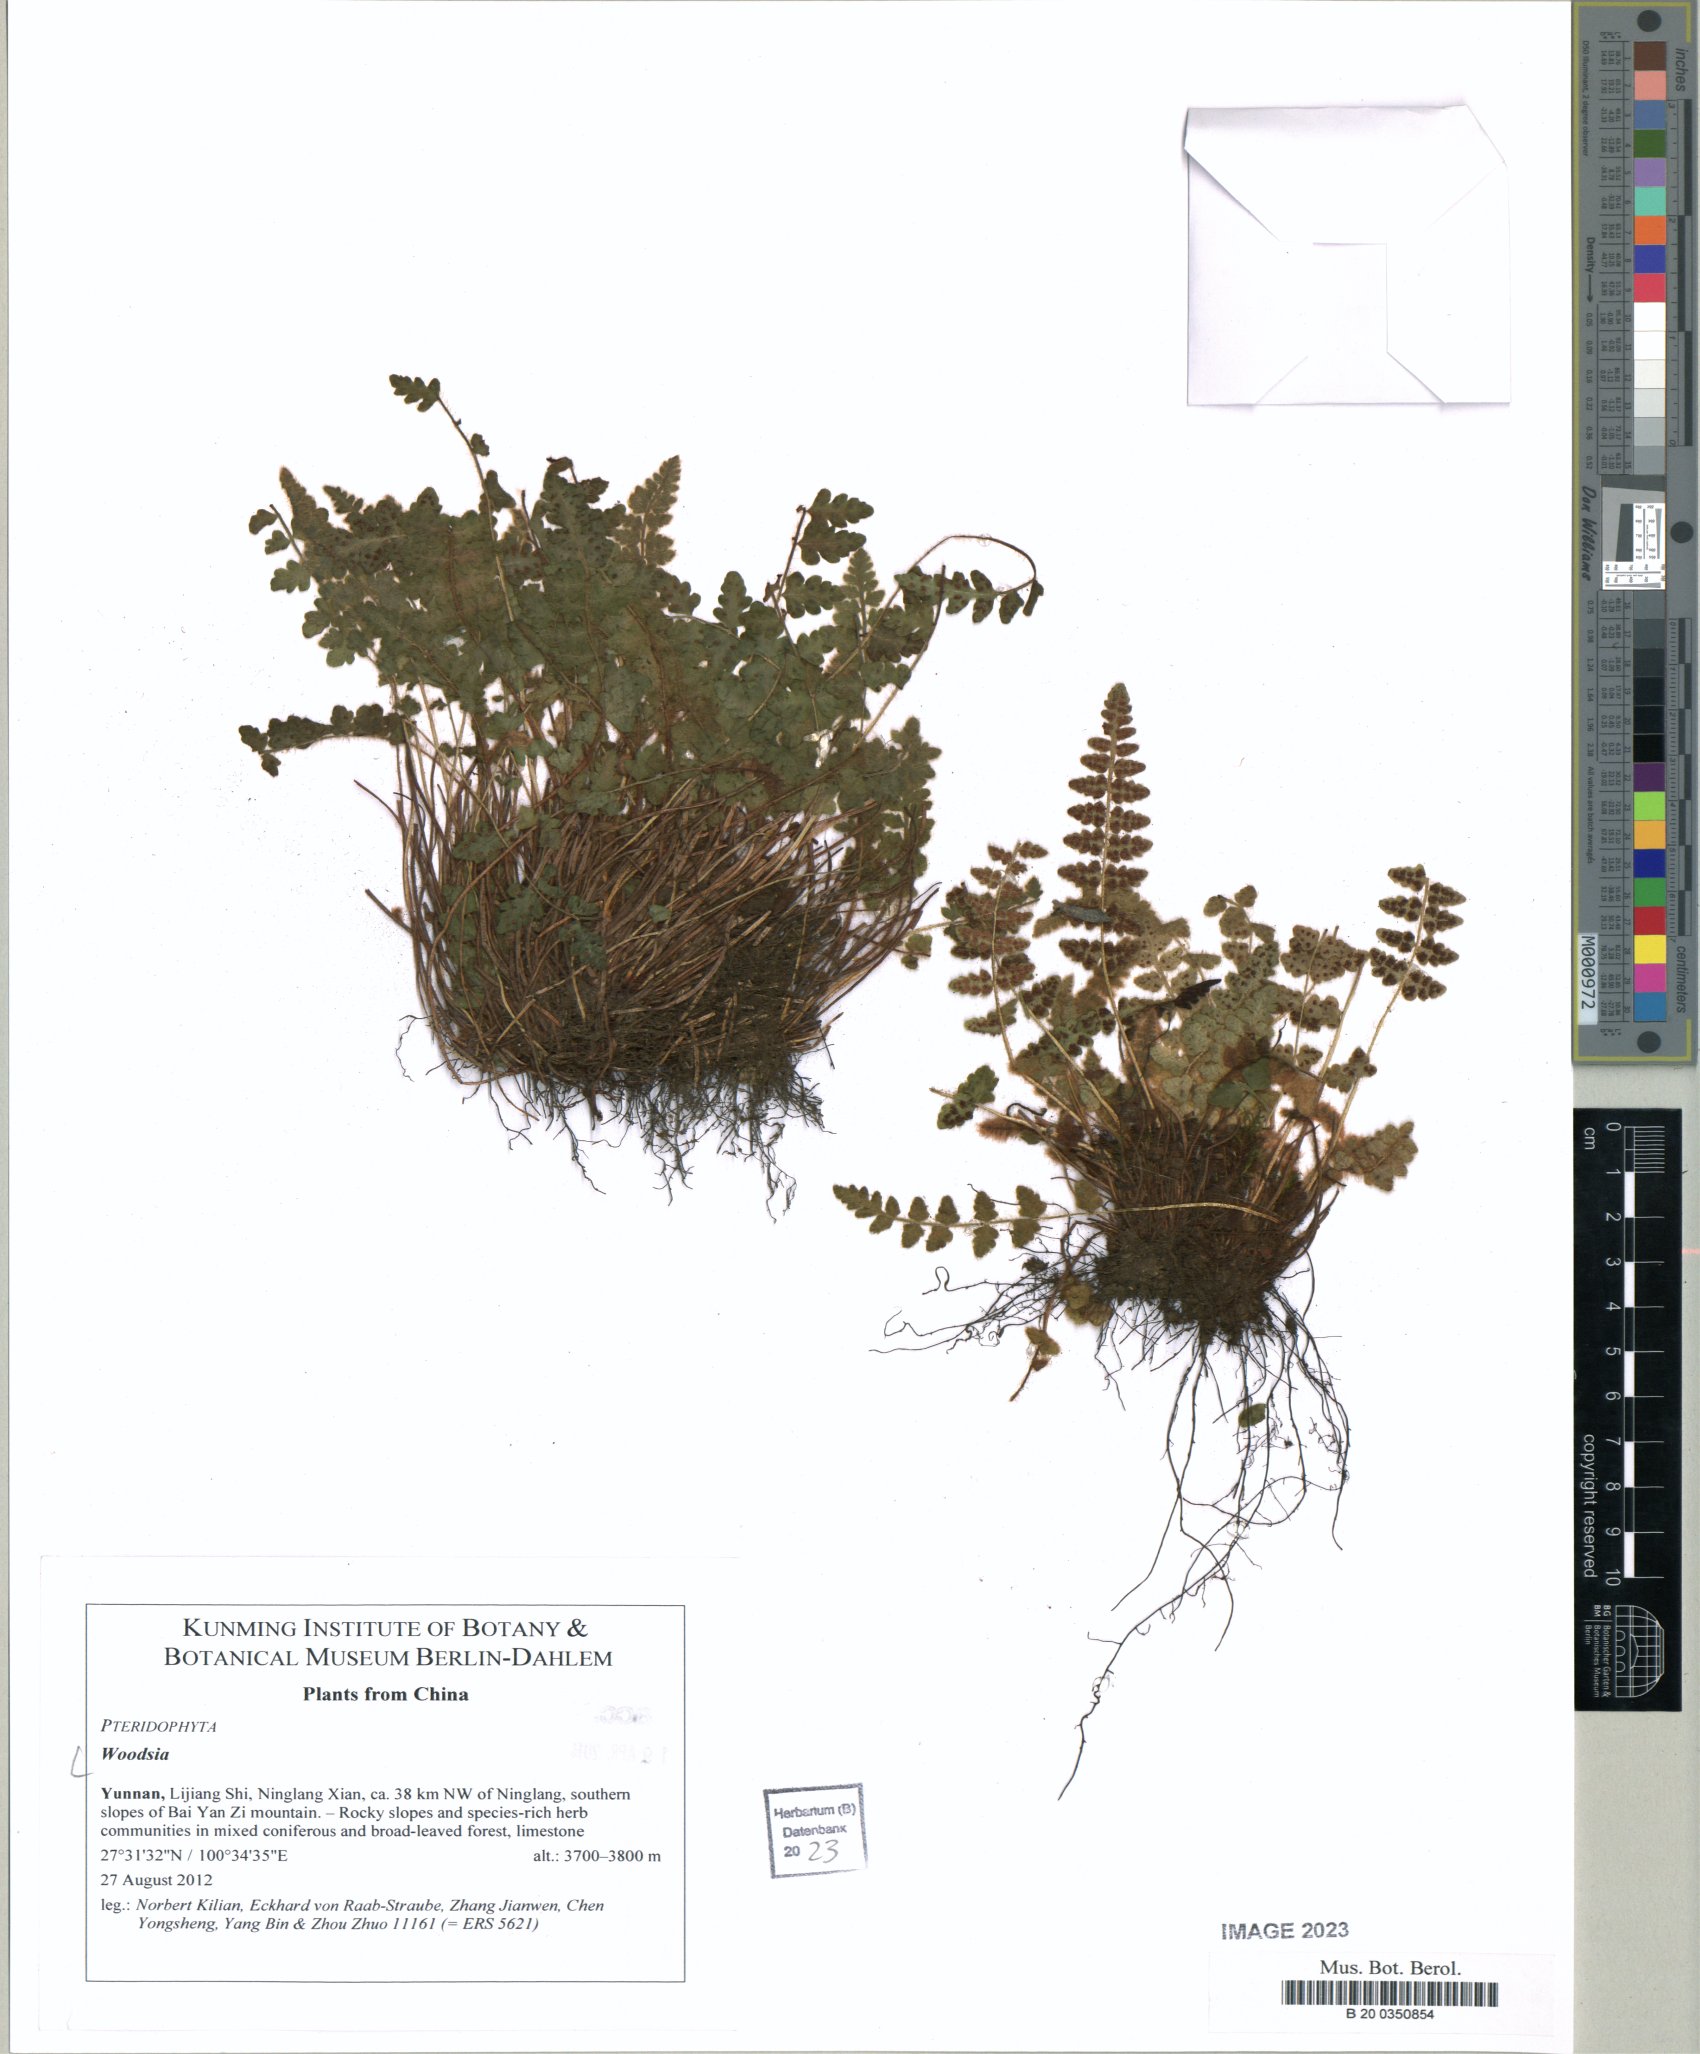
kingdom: Plantae
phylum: Tracheophyta
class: Polypodiopsida
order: Polypodiales
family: Woodsiaceae
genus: Woodsia
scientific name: Woodsia
